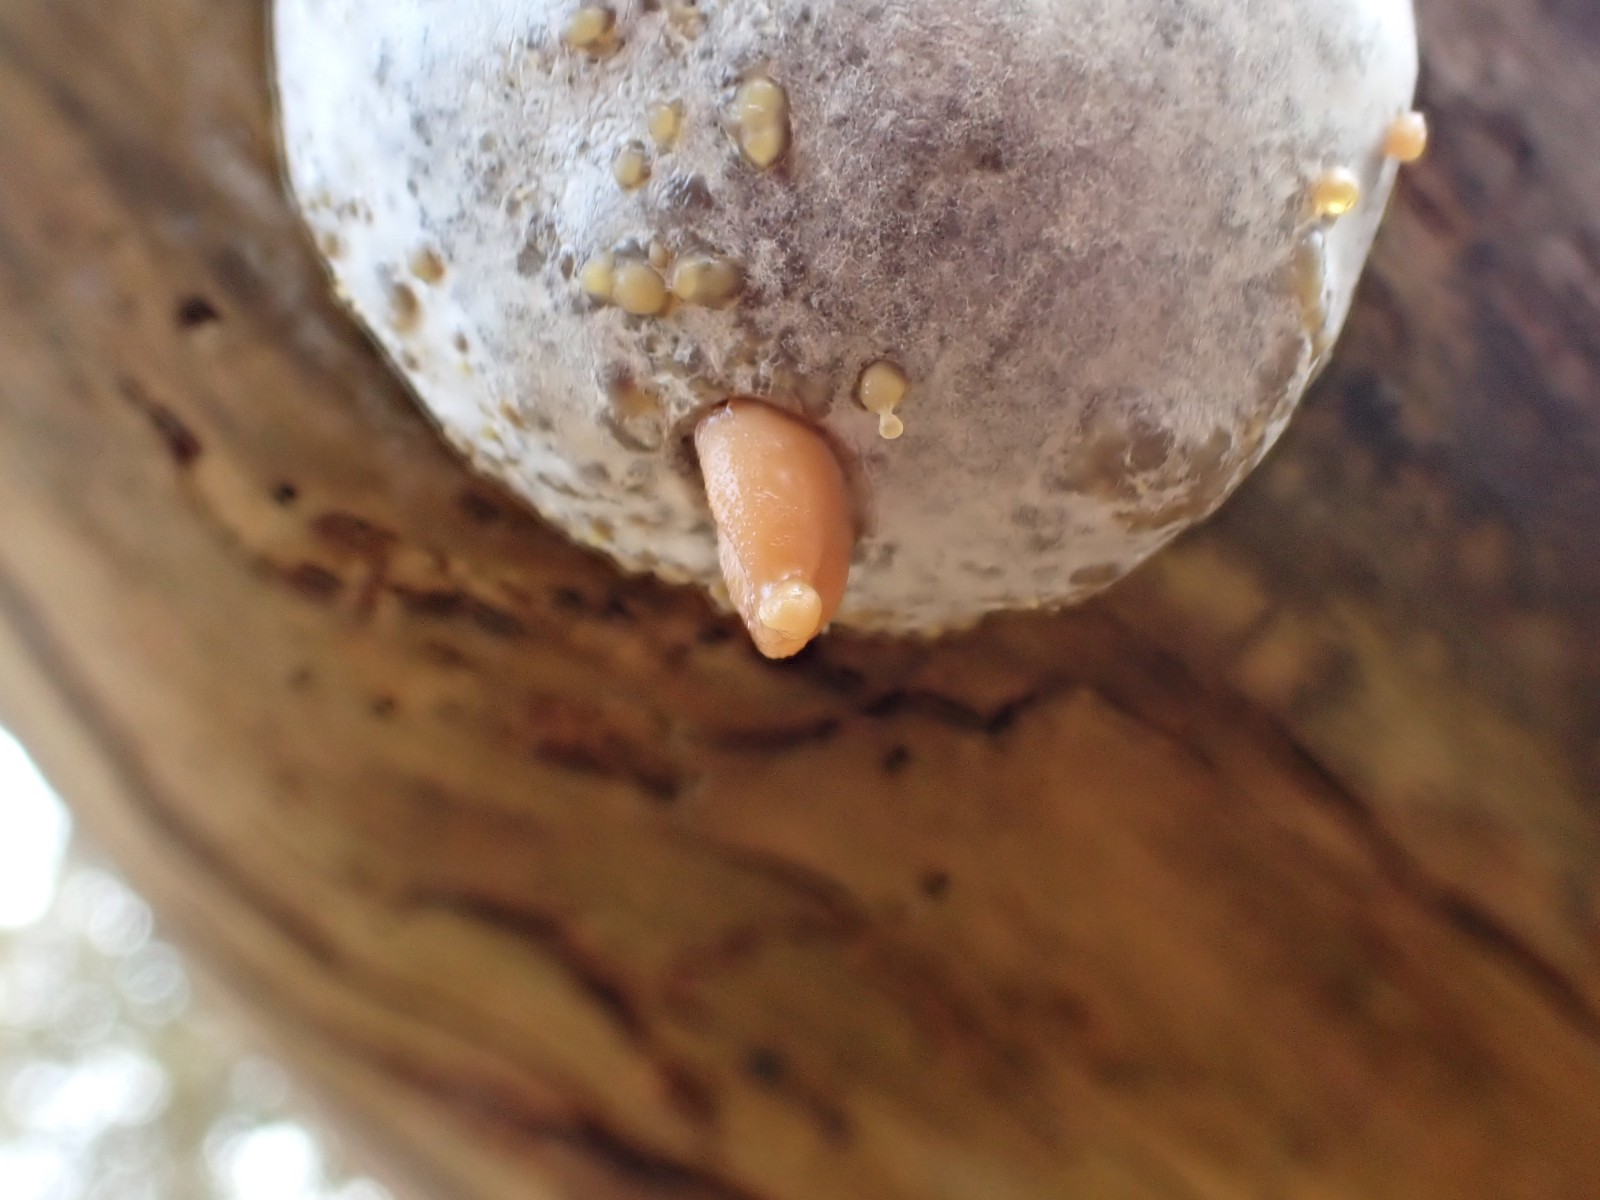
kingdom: Protozoa
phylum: Mycetozoa
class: Myxomycetes
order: Cribrariales
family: Tubiferaceae
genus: Reticularia
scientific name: Reticularia lycoperdon
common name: skinnende støvpude
